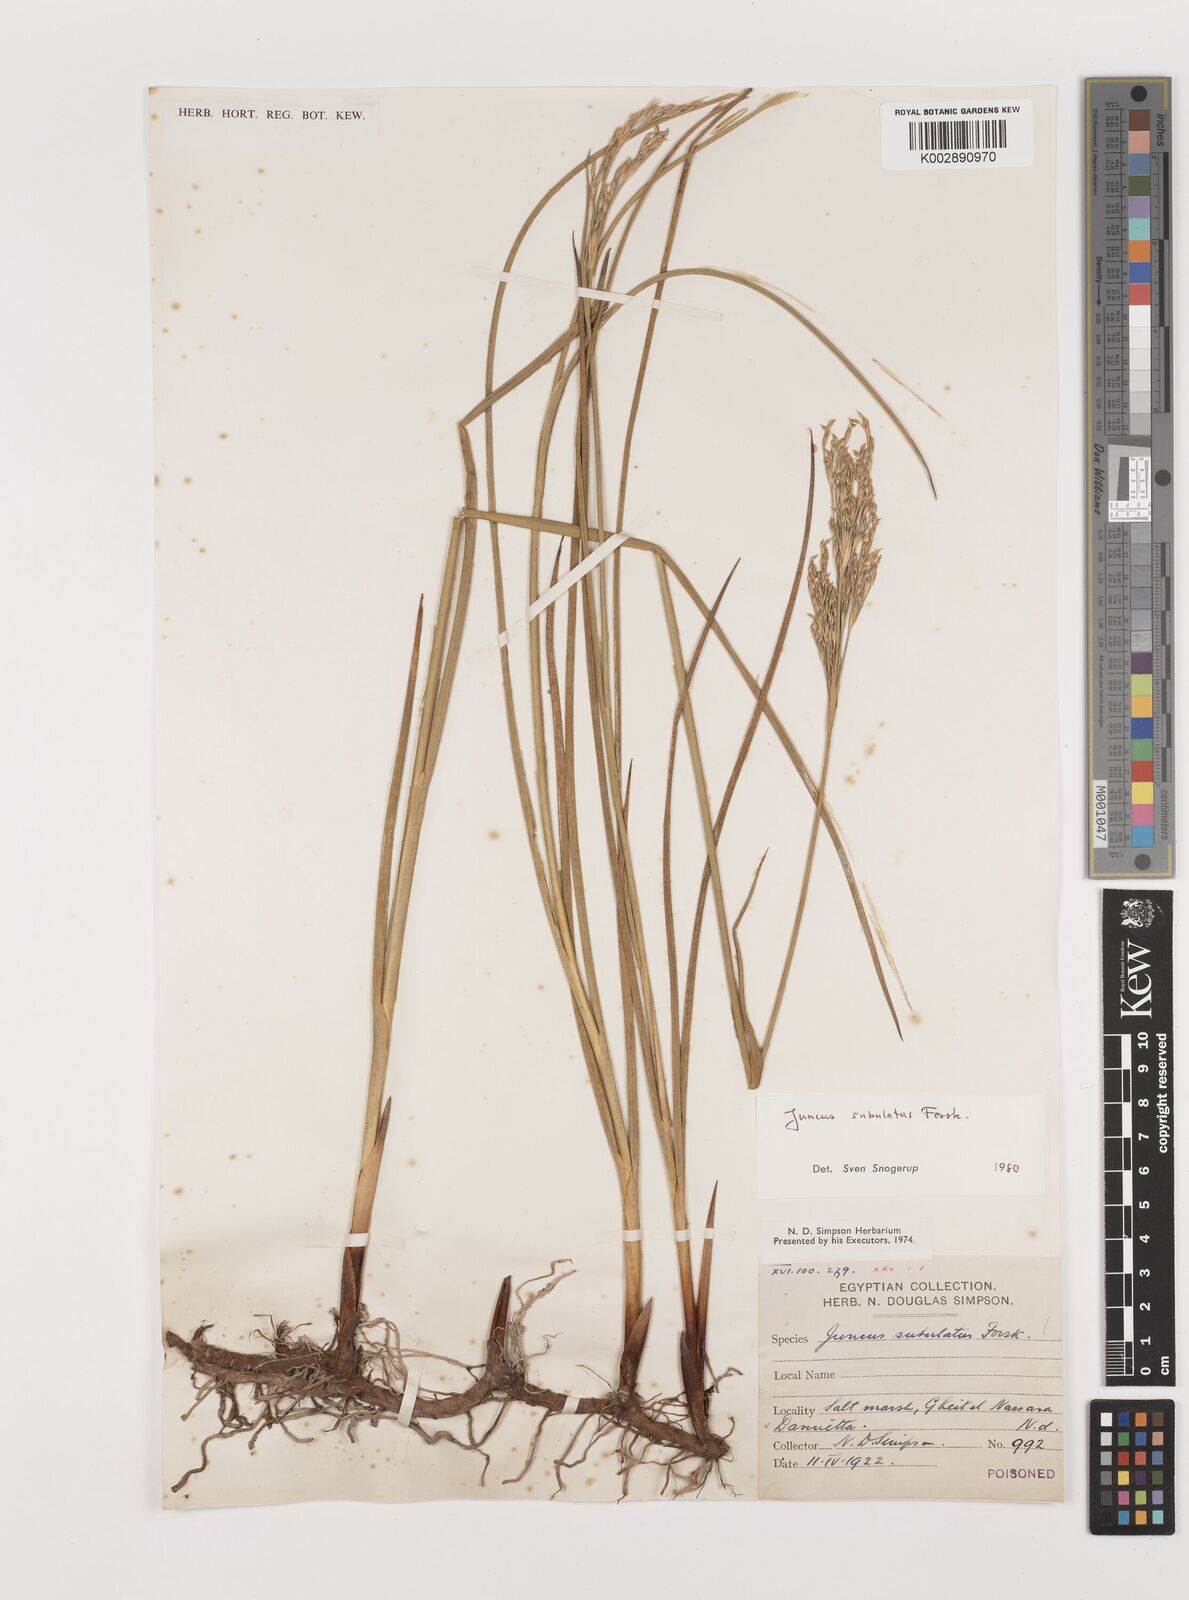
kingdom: Plantae
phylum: Tracheophyta
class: Liliopsida
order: Poales
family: Juncaceae
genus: Juncus
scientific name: Juncus subulatus
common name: Somerset rush
